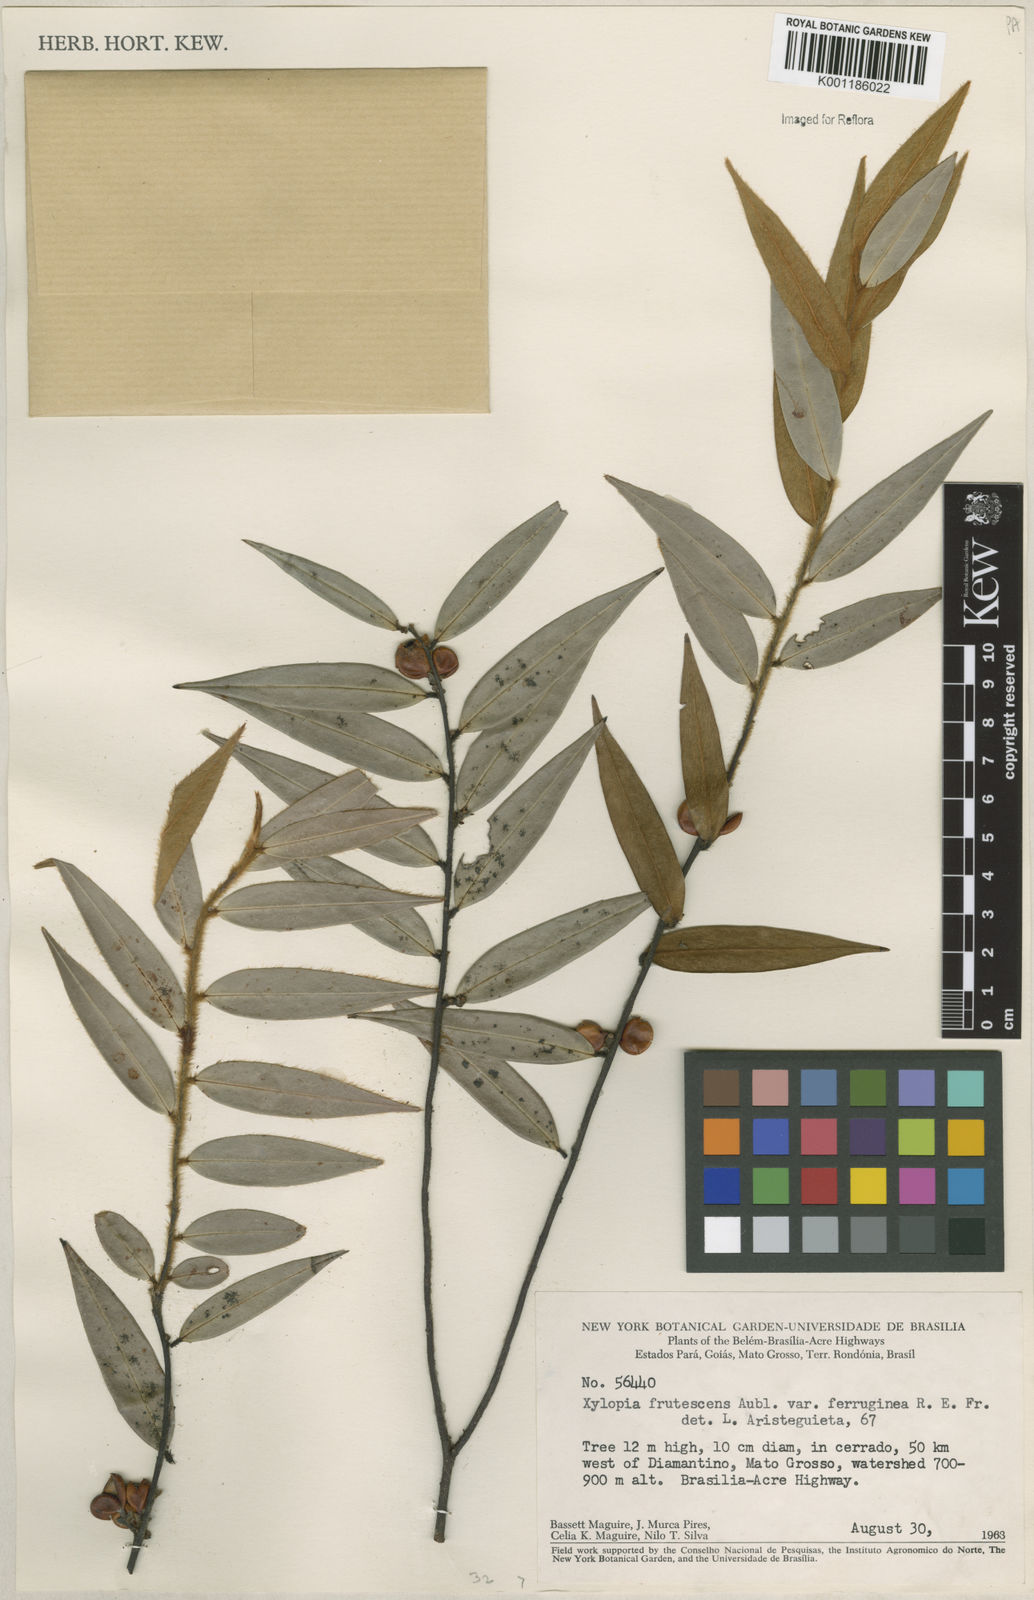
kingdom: Plantae
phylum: Tracheophyta
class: Magnoliopsida
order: Magnoliales
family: Annonaceae
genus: Xylopia
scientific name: Xylopia frutescens
